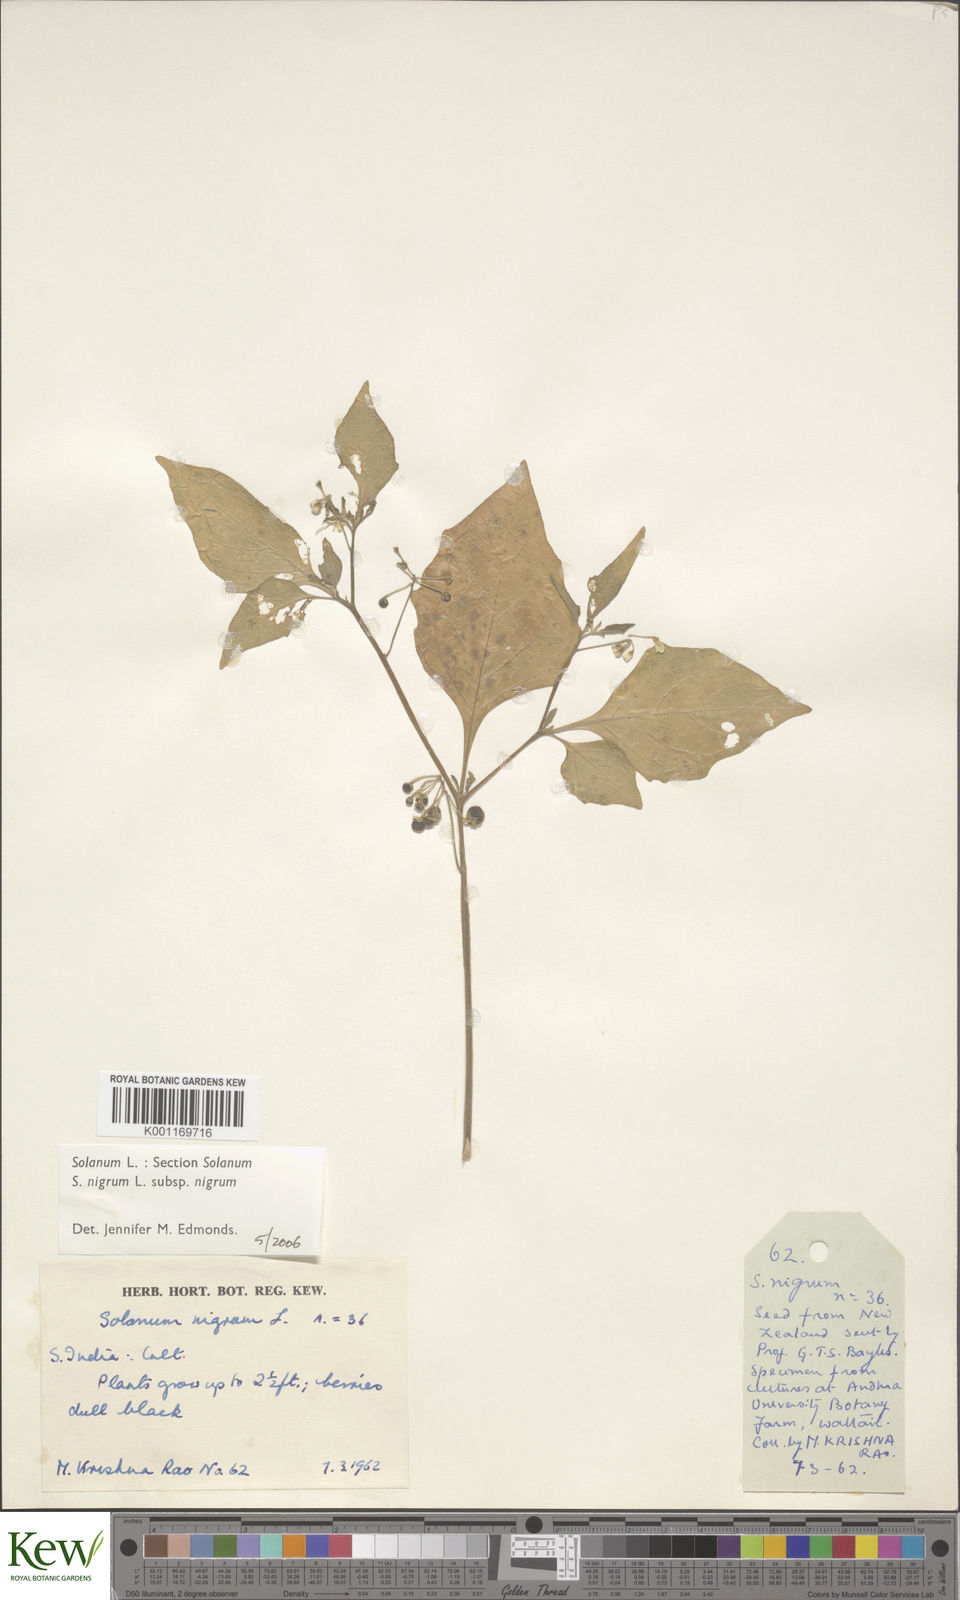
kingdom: Plantae
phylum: Tracheophyta
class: Magnoliopsida
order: Solanales
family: Solanaceae
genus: Solanum
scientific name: Solanum nigrum
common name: Black nightshade
